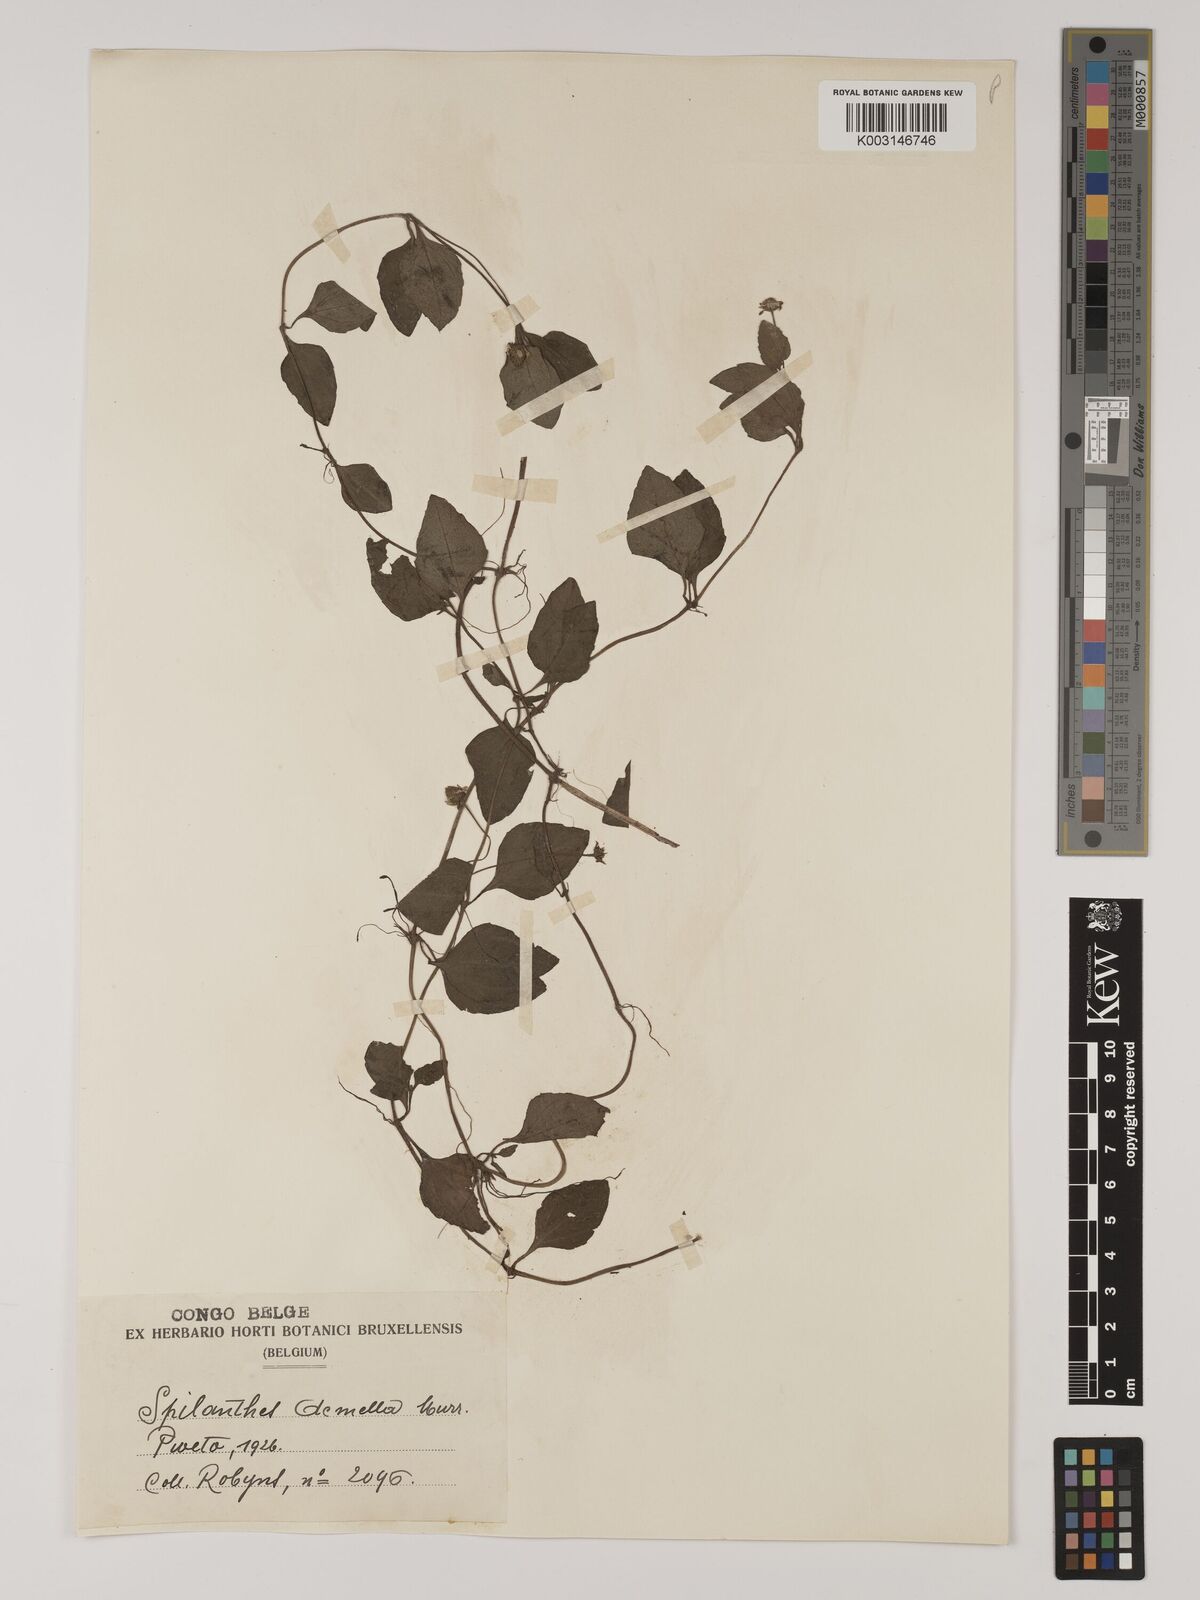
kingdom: Plantae
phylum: Tracheophyta
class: Magnoliopsida
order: Asterales
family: Asteraceae
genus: Blainvillea
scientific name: Blainvillea acmella
